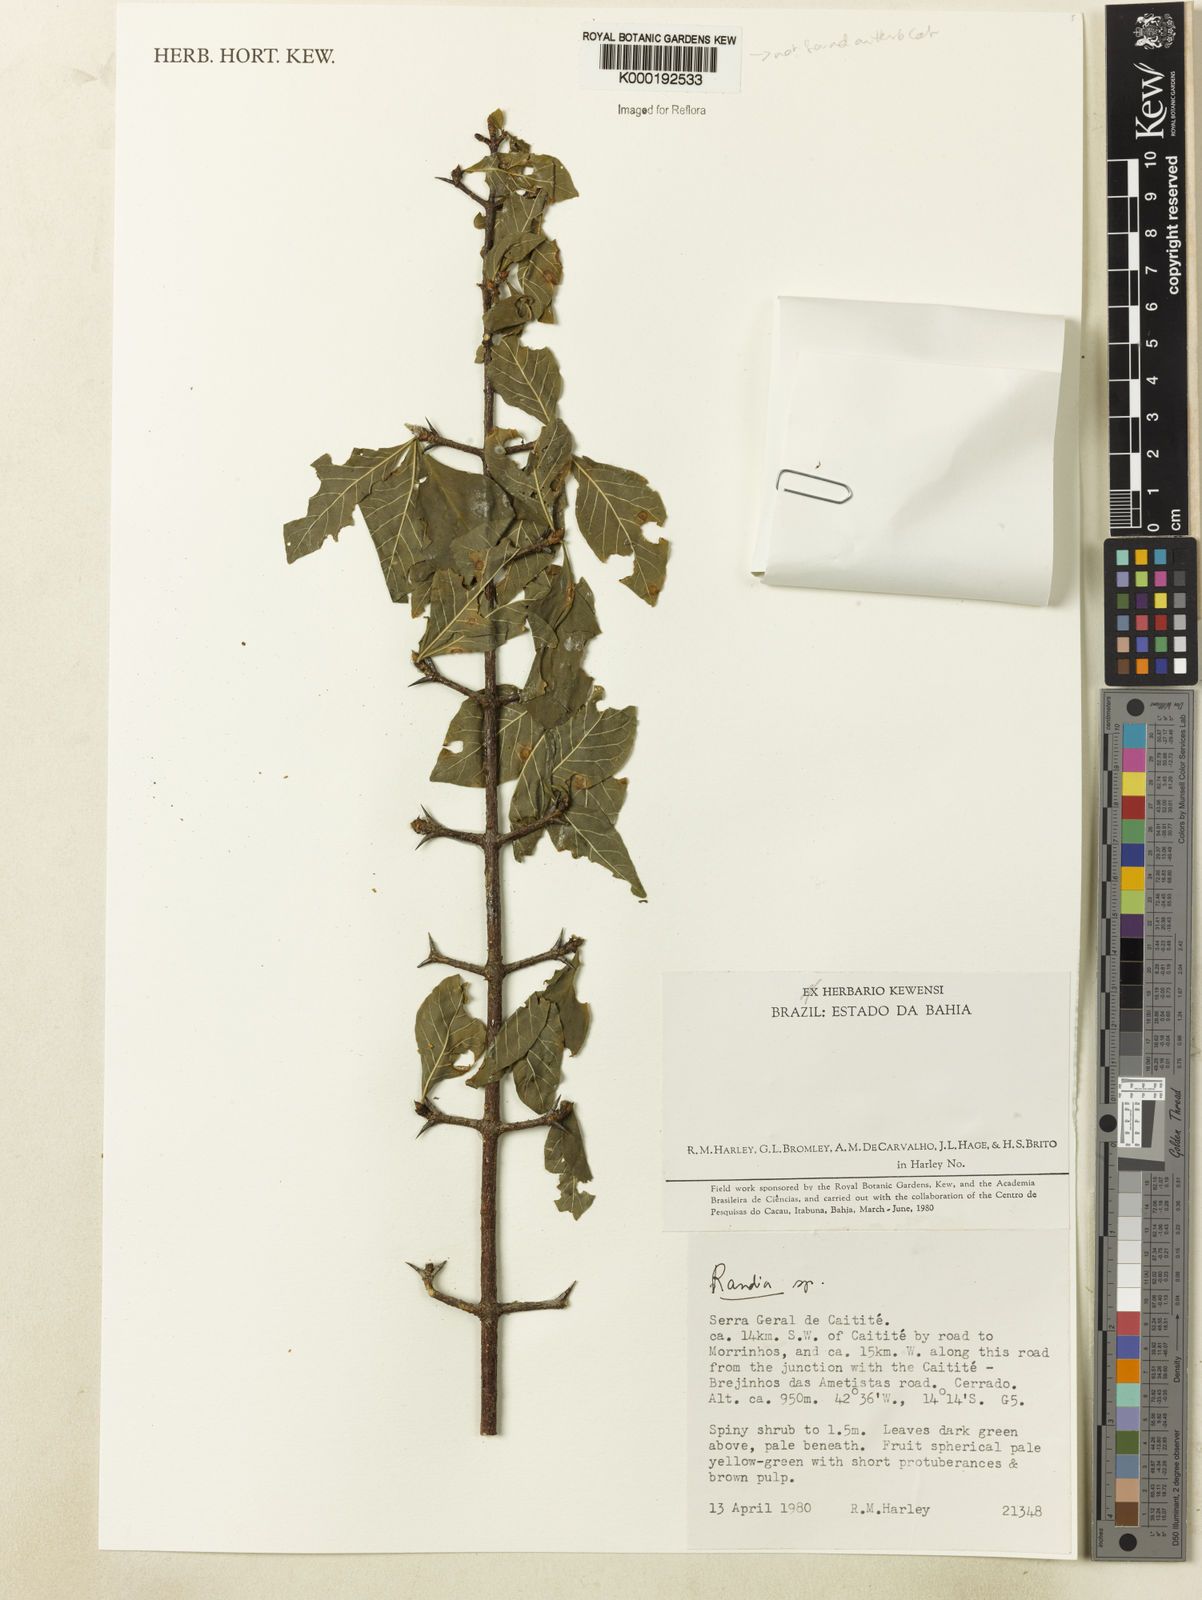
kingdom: Plantae
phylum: Tracheophyta
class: Magnoliopsida
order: Gentianales
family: Rubiaceae
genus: Randia
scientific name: Randia
